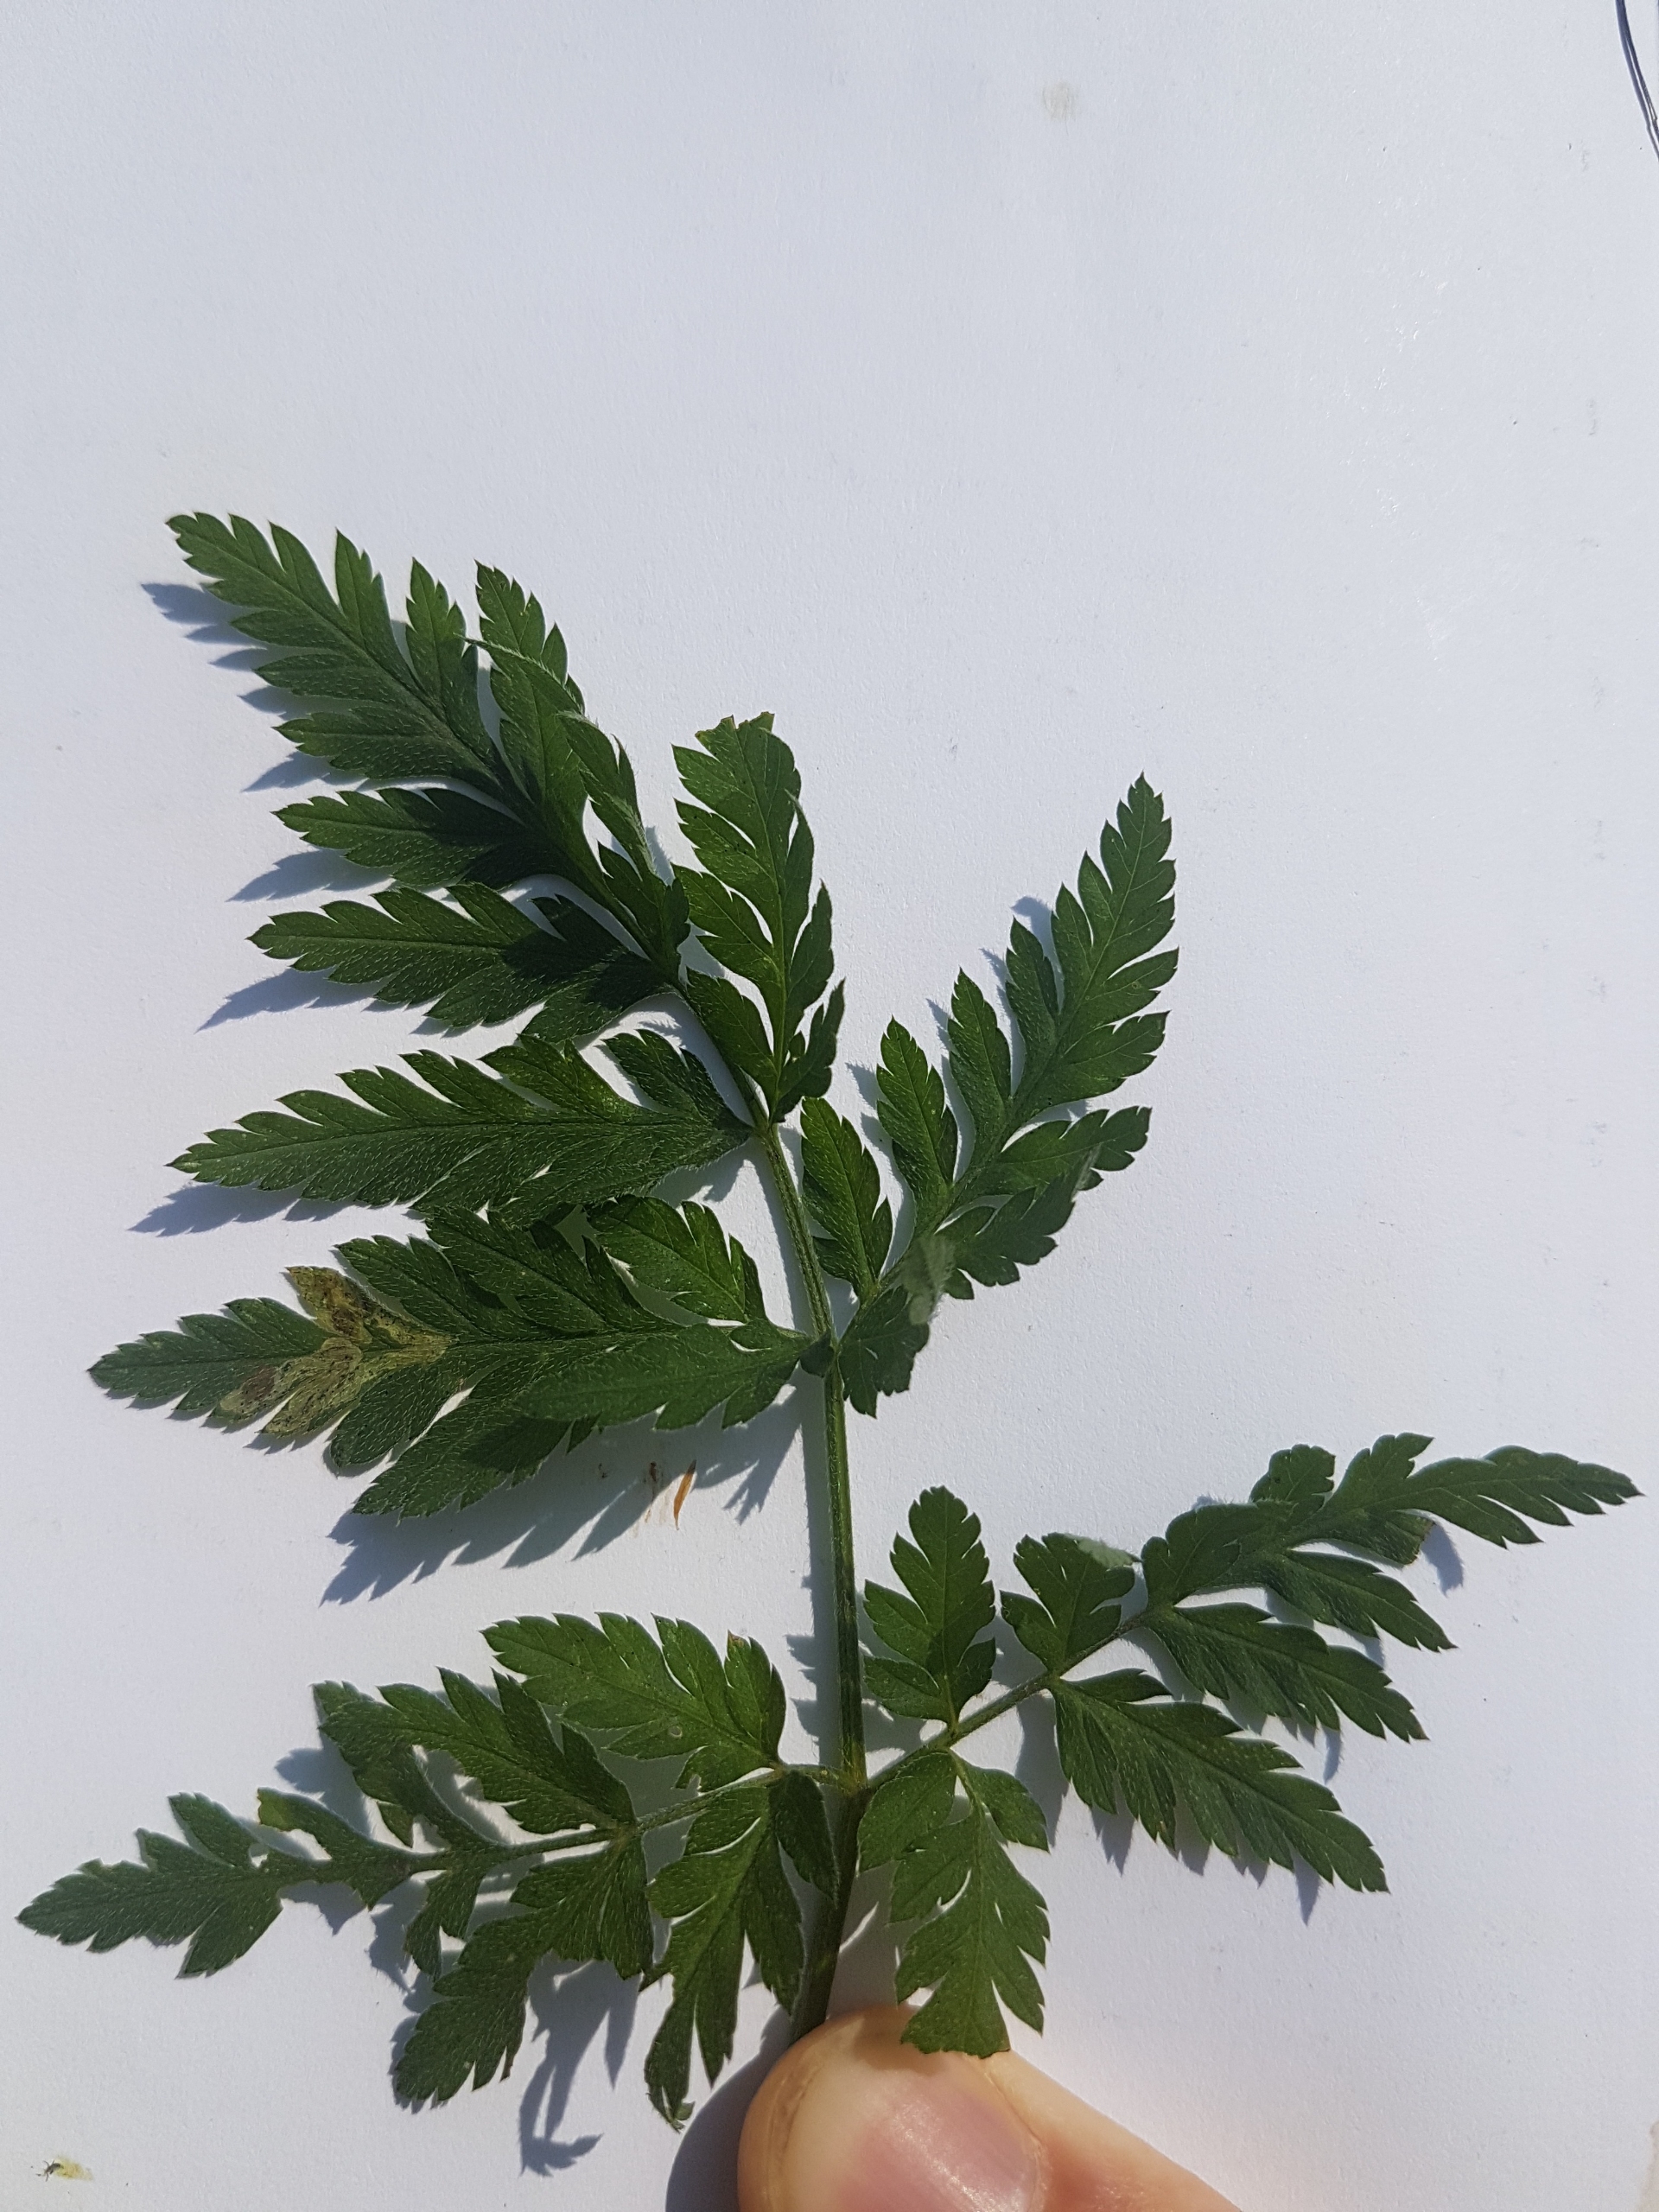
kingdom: Plantae
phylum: Tracheophyta
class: Magnoliopsida
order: Apiales
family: Apiaceae
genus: Torilis
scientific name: Torilis japonica
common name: Hvas randfrø
